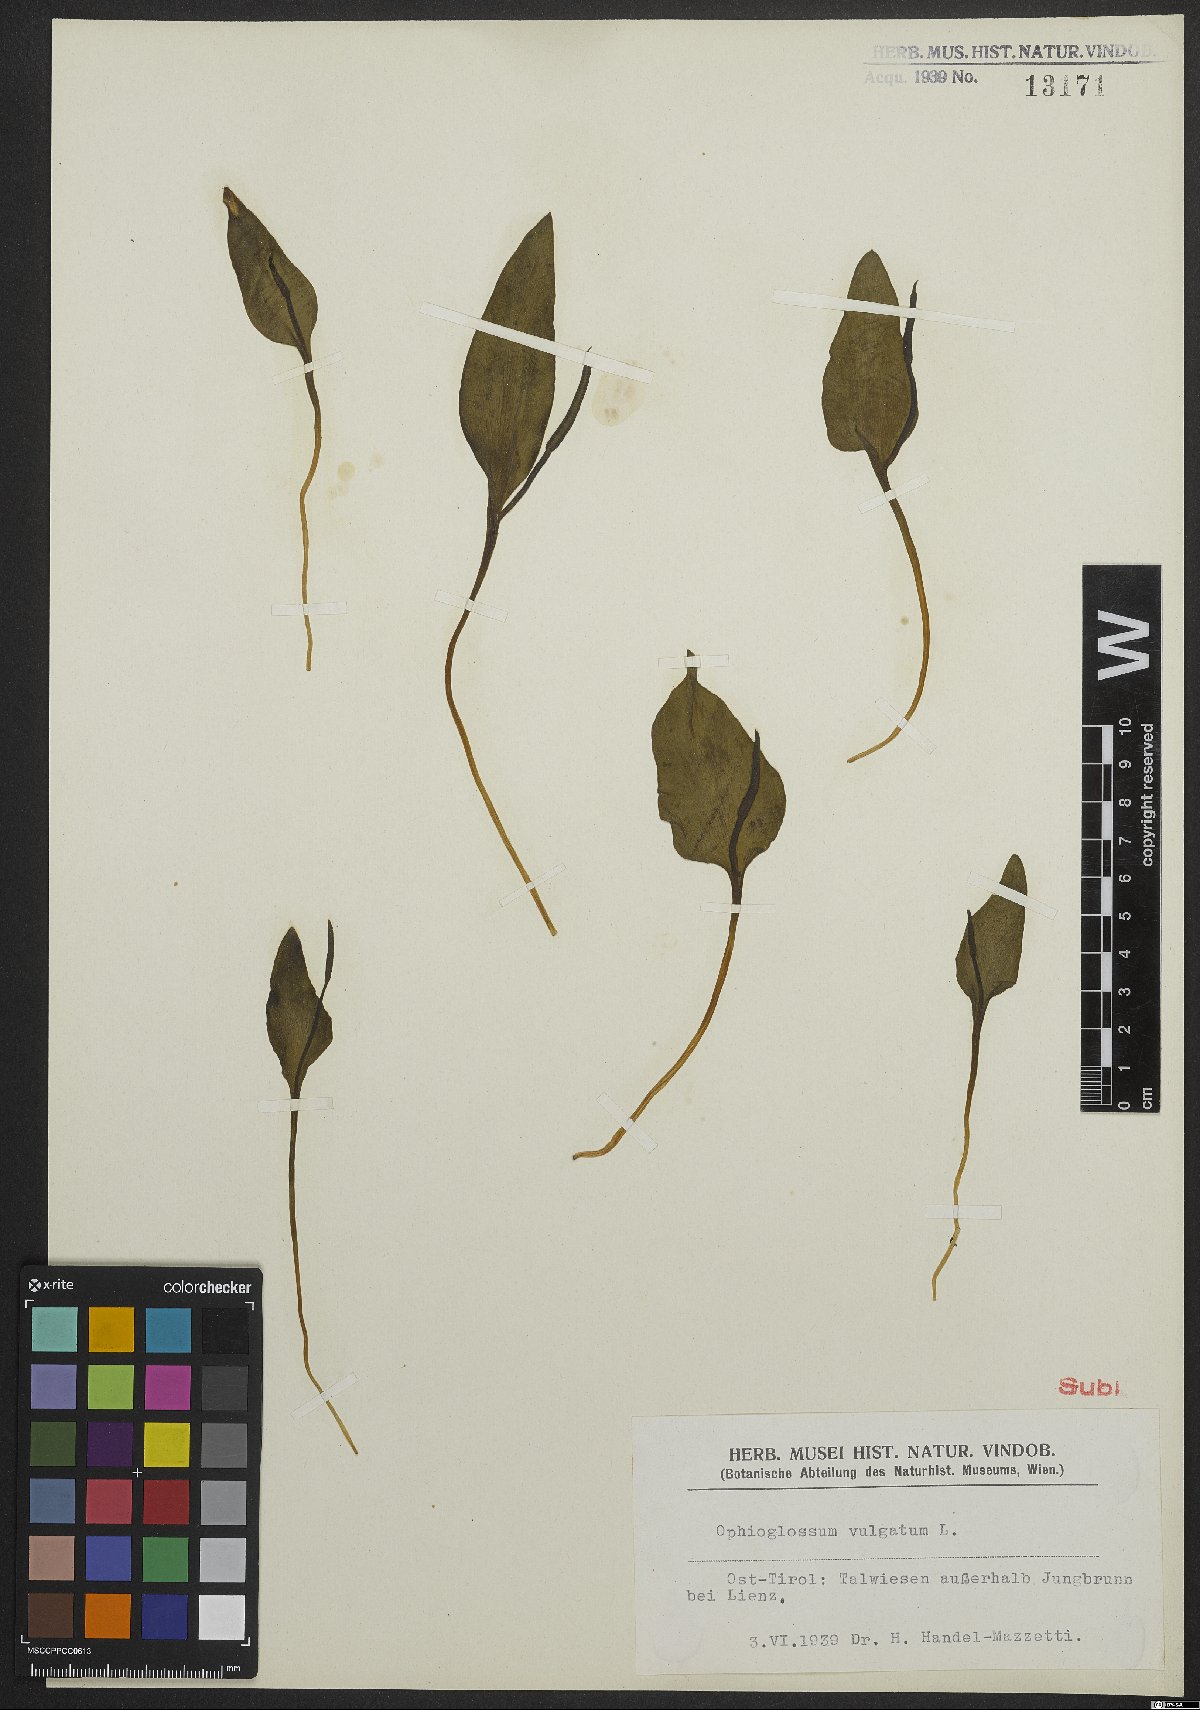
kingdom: Plantae
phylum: Tracheophyta
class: Polypodiopsida
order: Ophioglossales
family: Ophioglossaceae
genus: Ophioglossum
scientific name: Ophioglossum vulgatum
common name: Adder's-tongue
